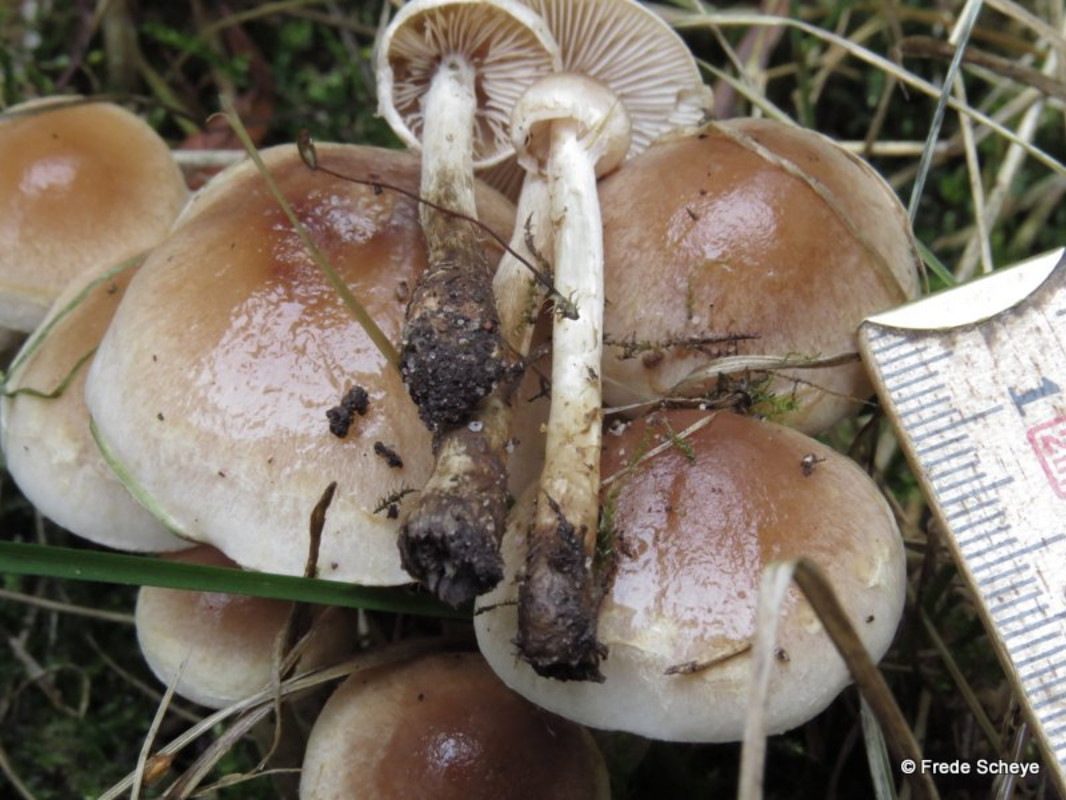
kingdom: Fungi
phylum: Basidiomycota
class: Agaricomycetes
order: Agaricales
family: Hymenogastraceae
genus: Hebeloma
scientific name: Hebeloma mesophaeum
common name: lerbrun tåreblad
